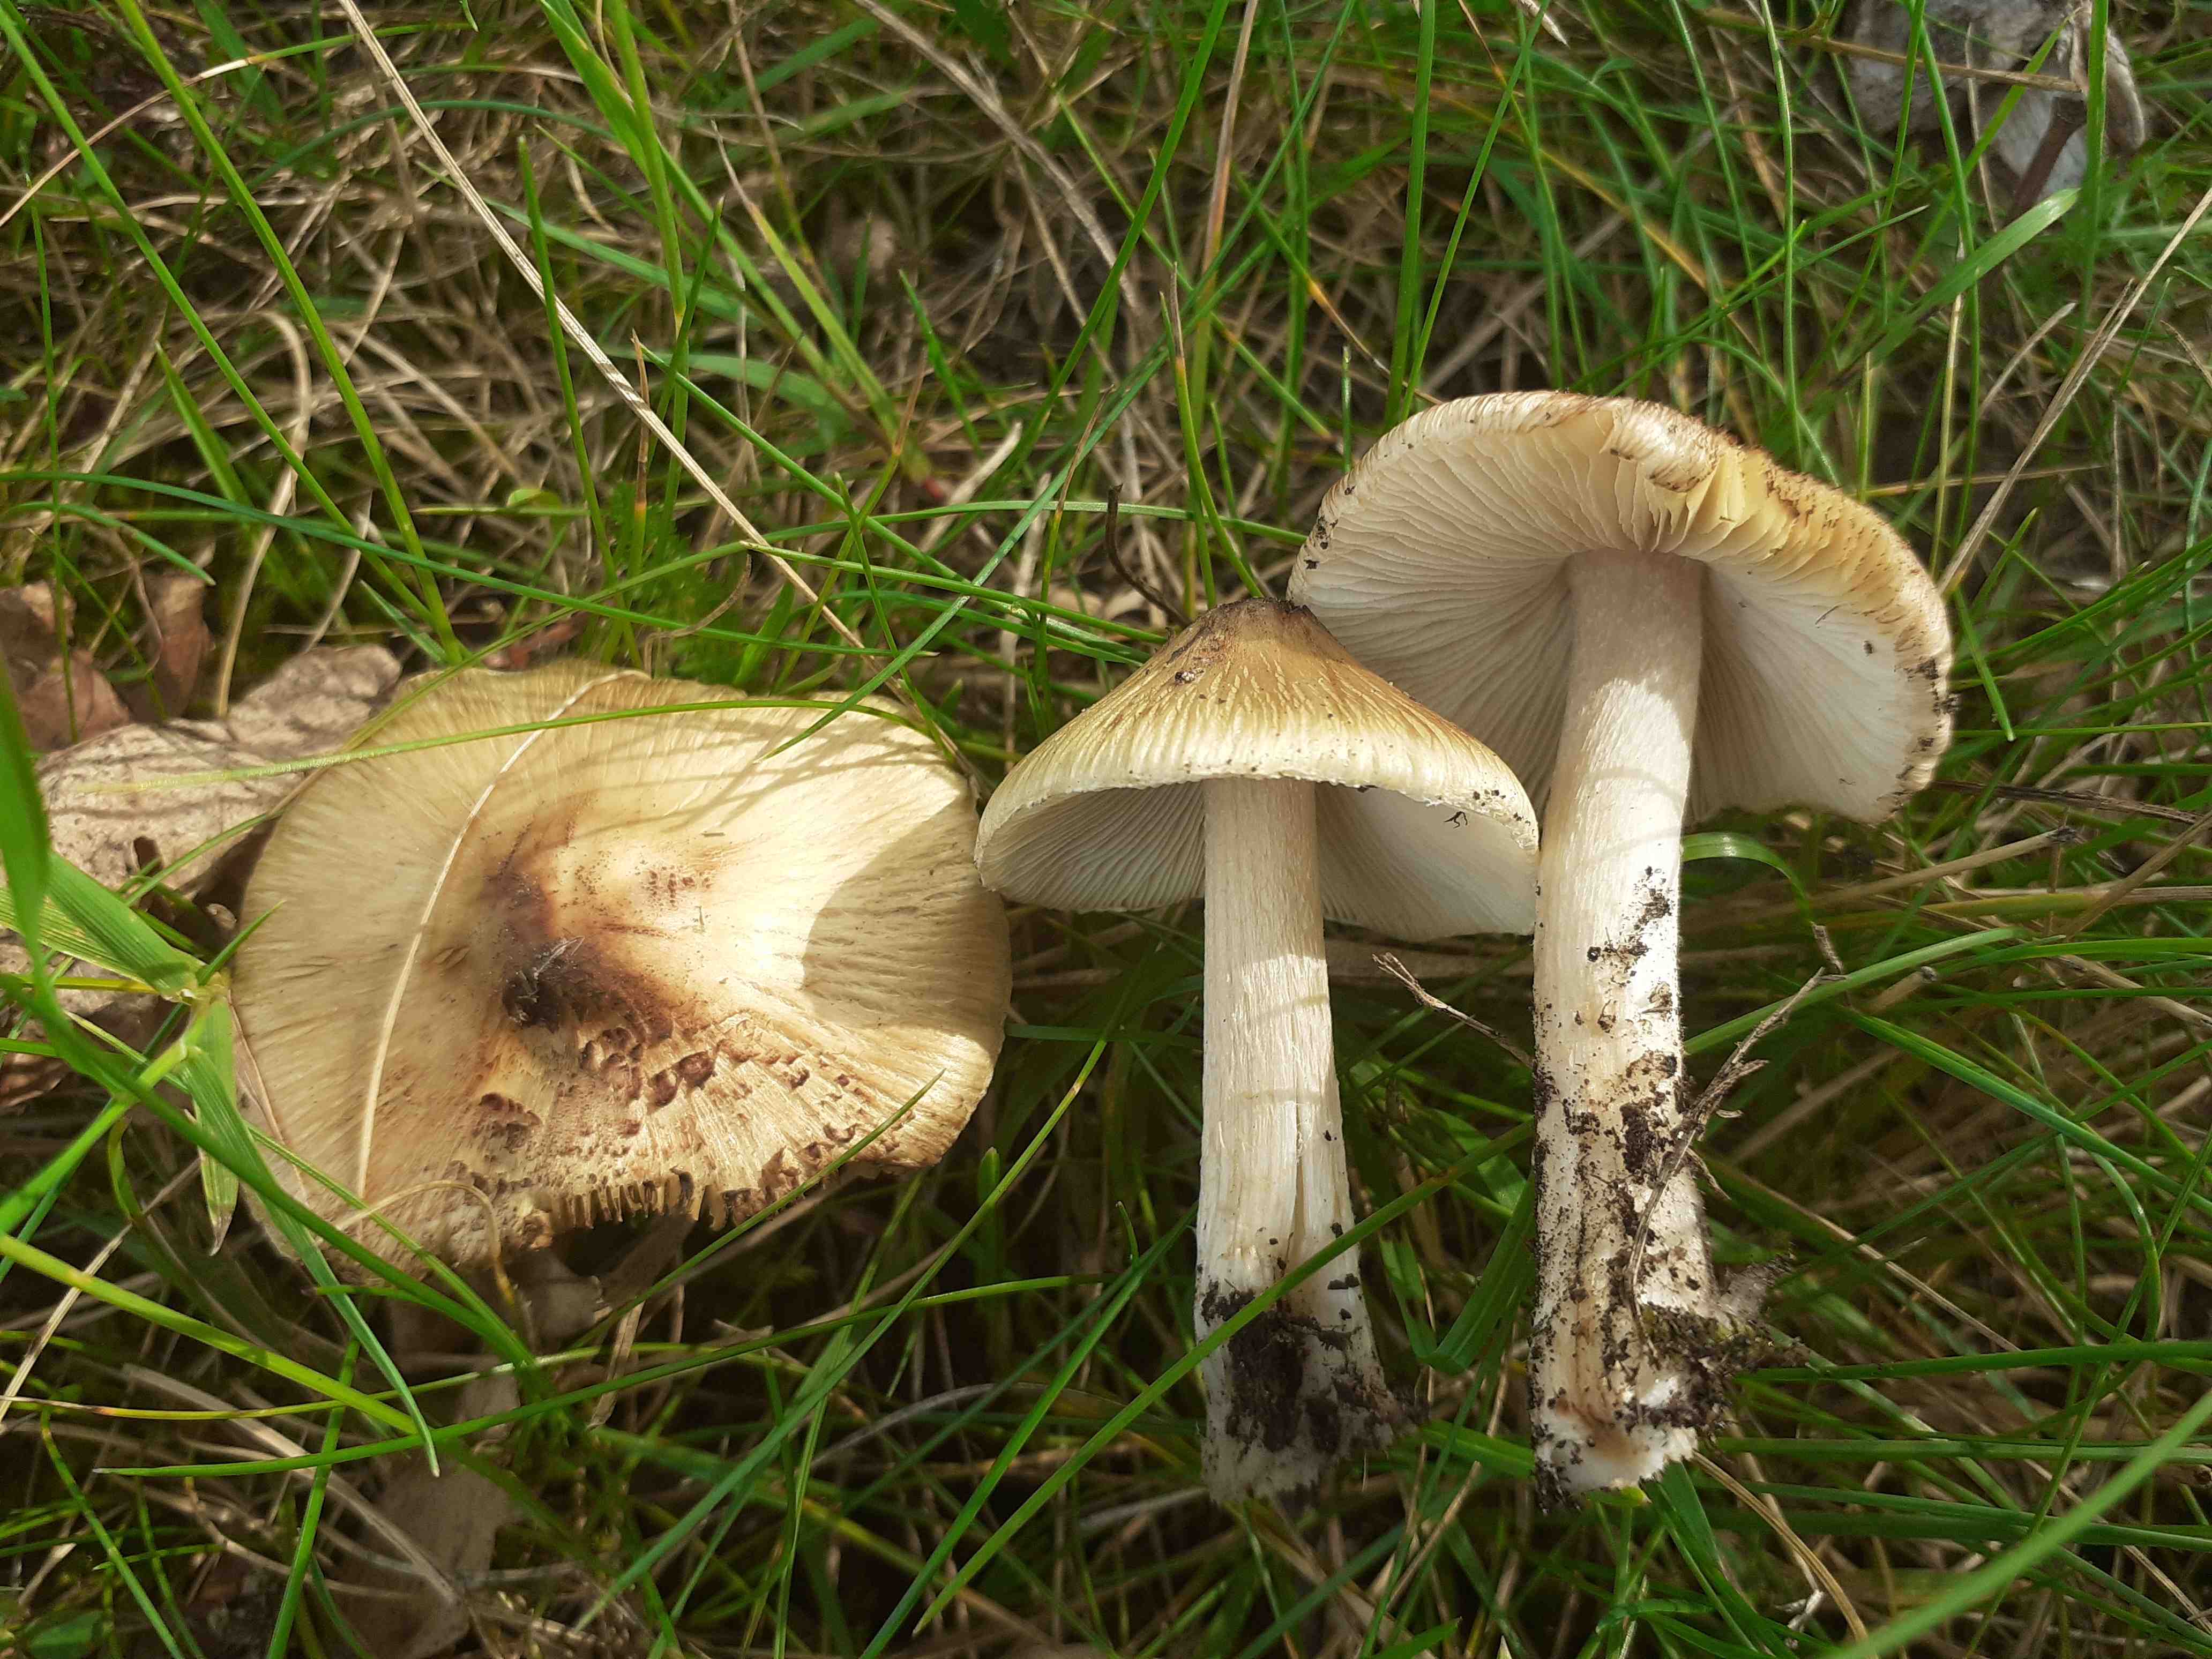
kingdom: Fungi
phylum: Basidiomycota
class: Agaricomycetes
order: Agaricales
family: Inocybaceae
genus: Pseudosperma
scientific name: Pseudosperma
